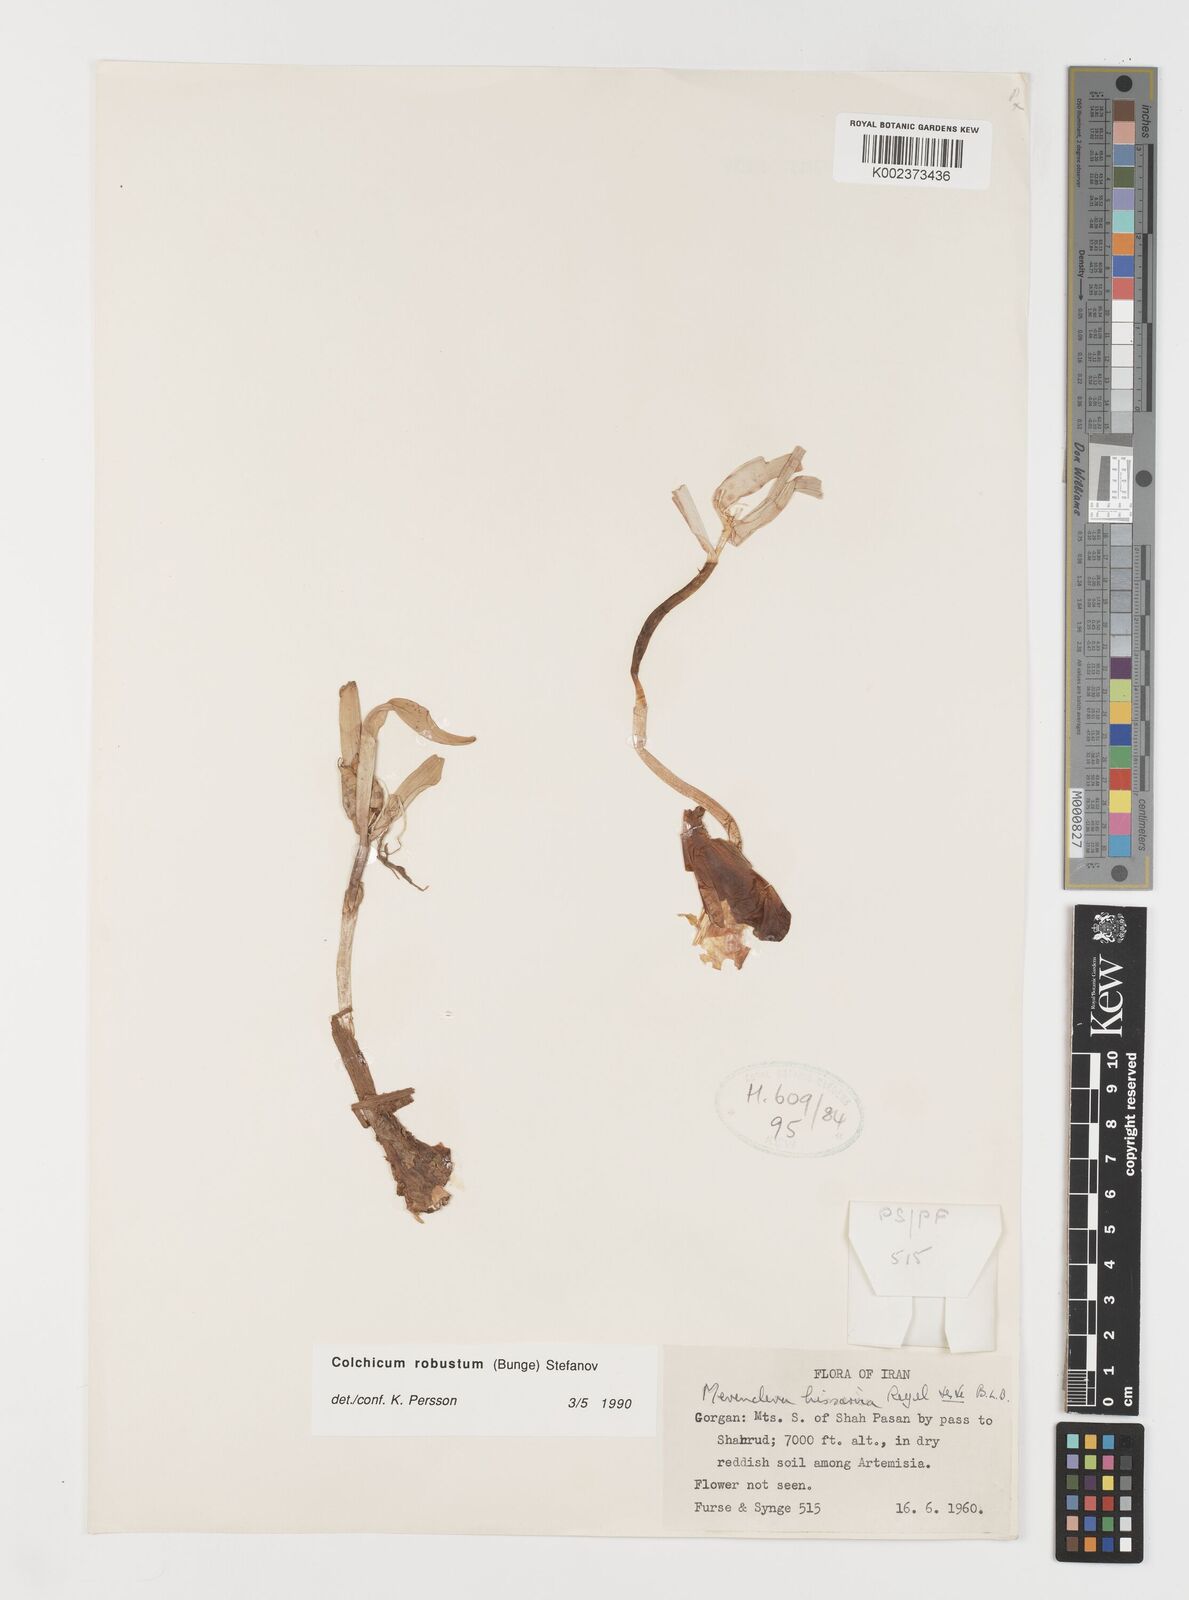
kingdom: Plantae
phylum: Tracheophyta
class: Liliopsida
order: Liliales
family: Colchicaceae
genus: Colchicum
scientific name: Colchicum robustum
